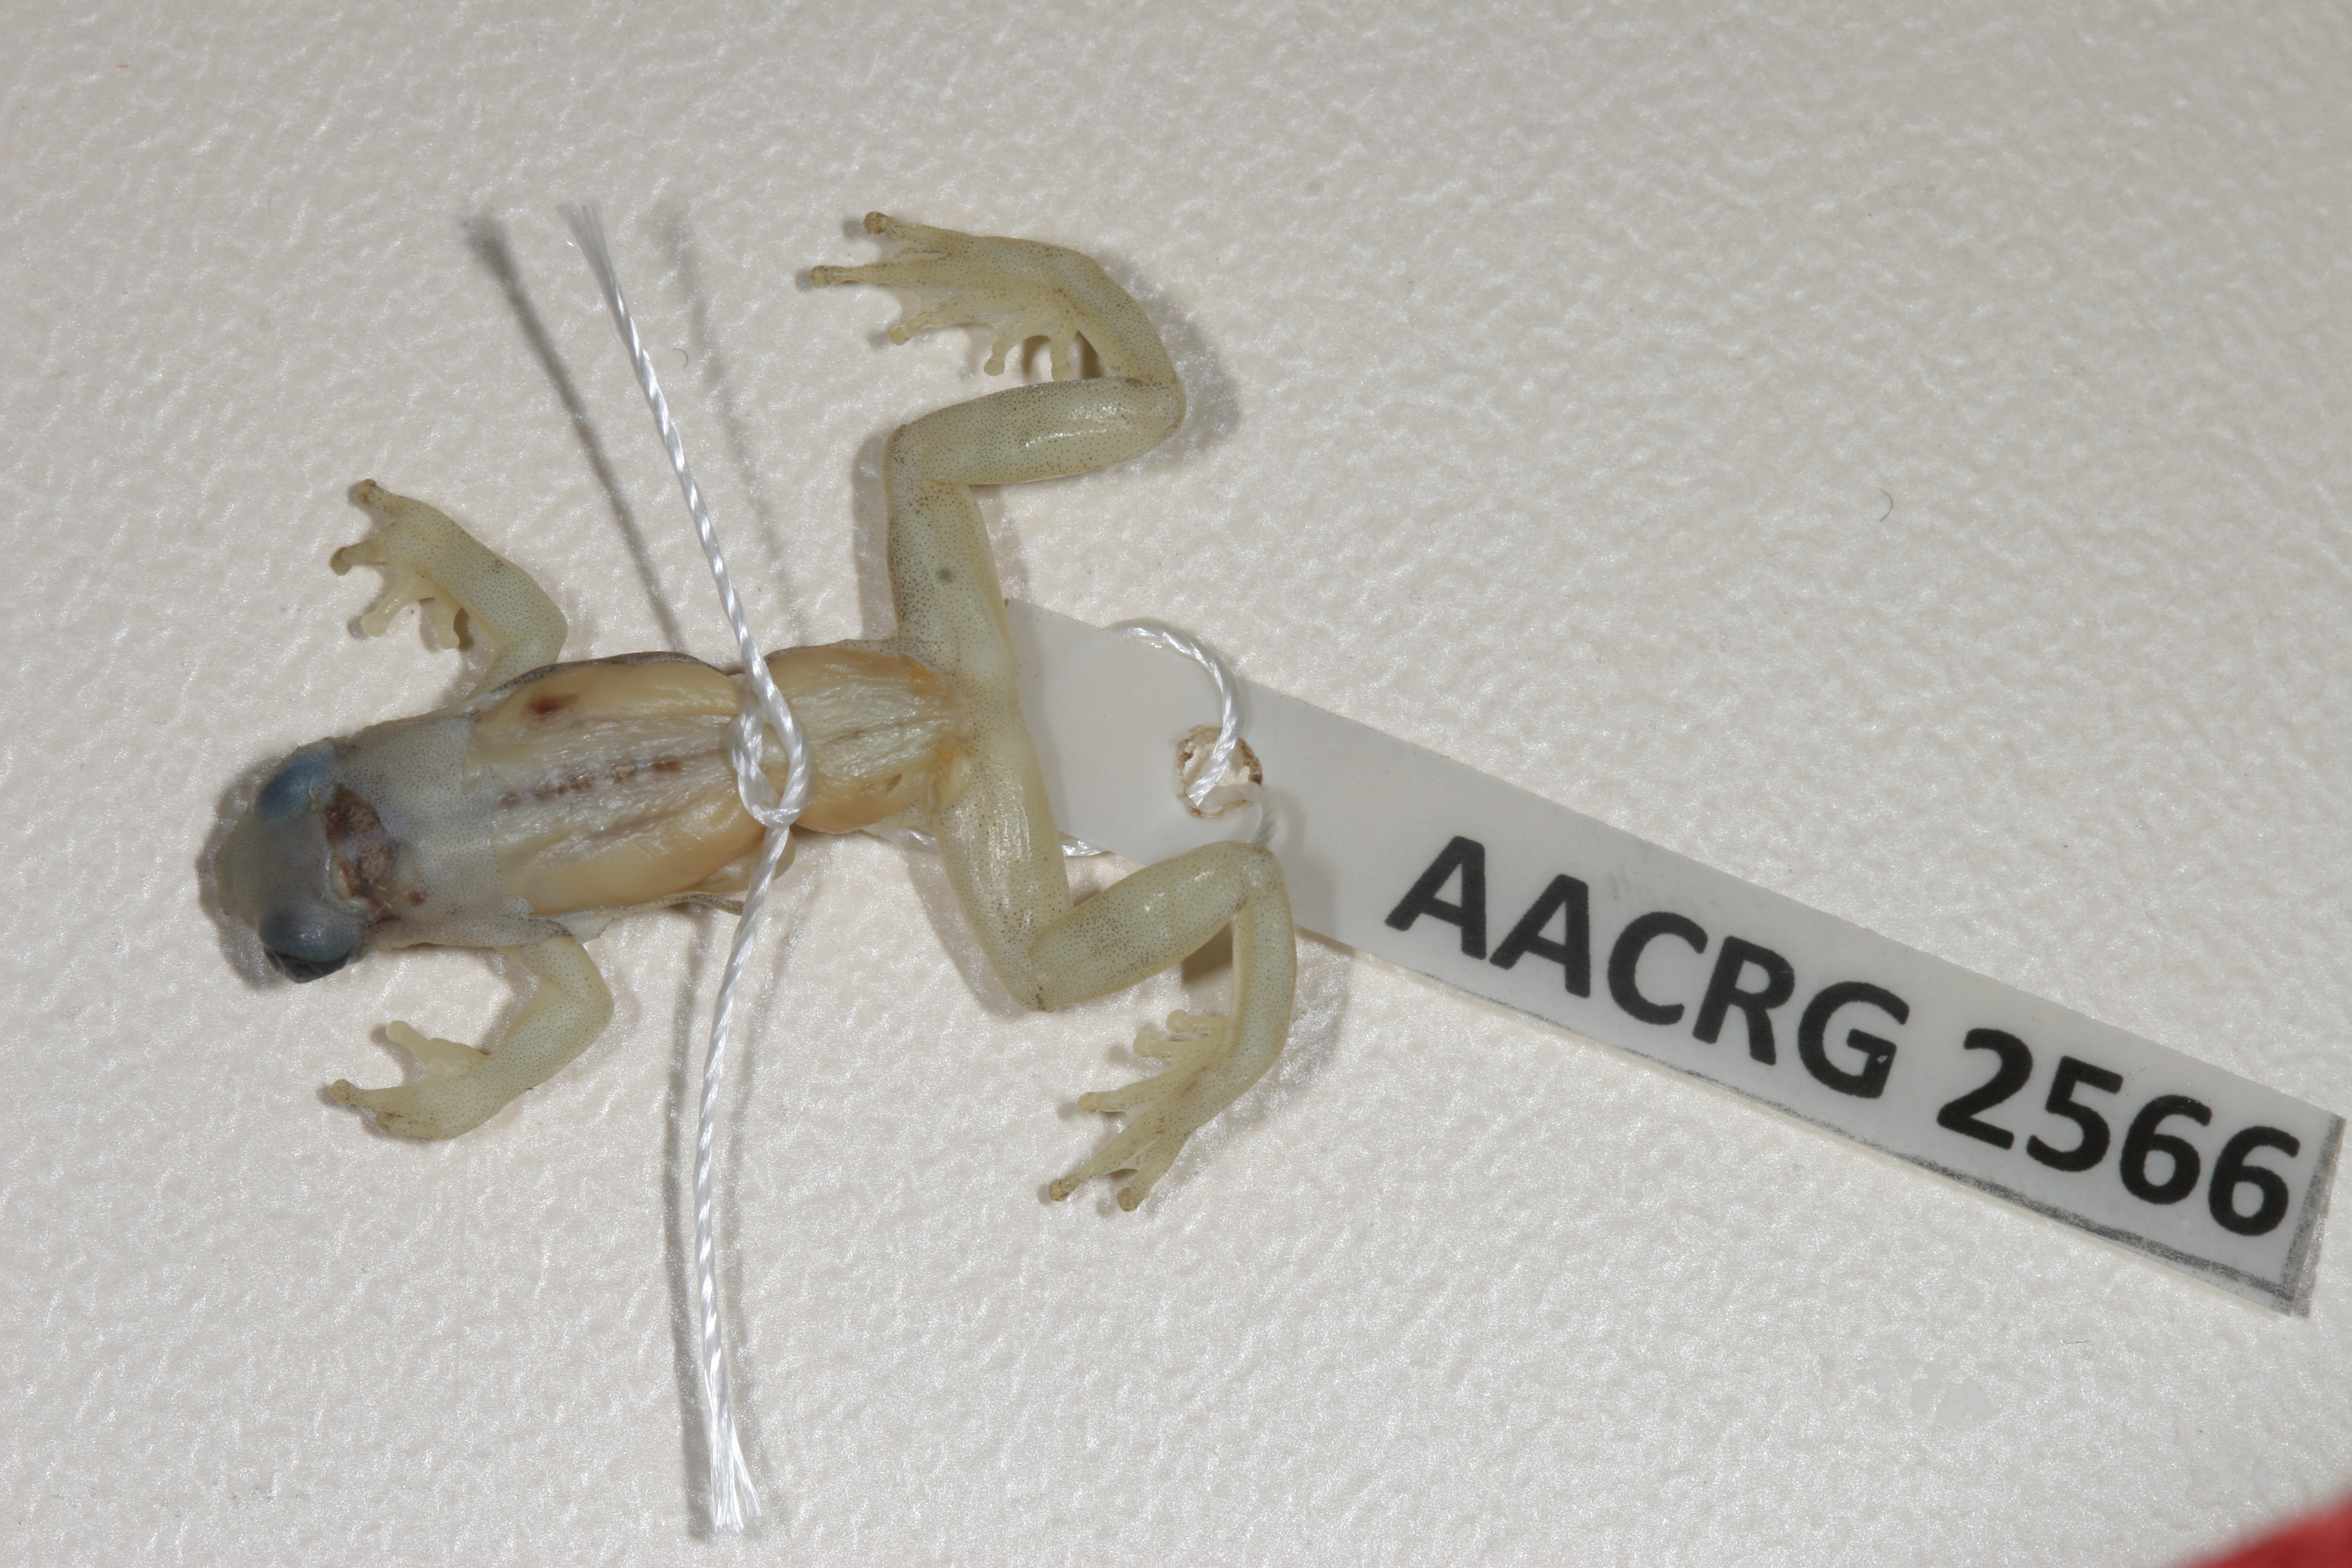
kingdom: Animalia
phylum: Chordata
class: Amphibia
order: Anura
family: Hyperoliidae
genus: Afrixalus
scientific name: Afrixalus aureus
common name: Golden banana frog
